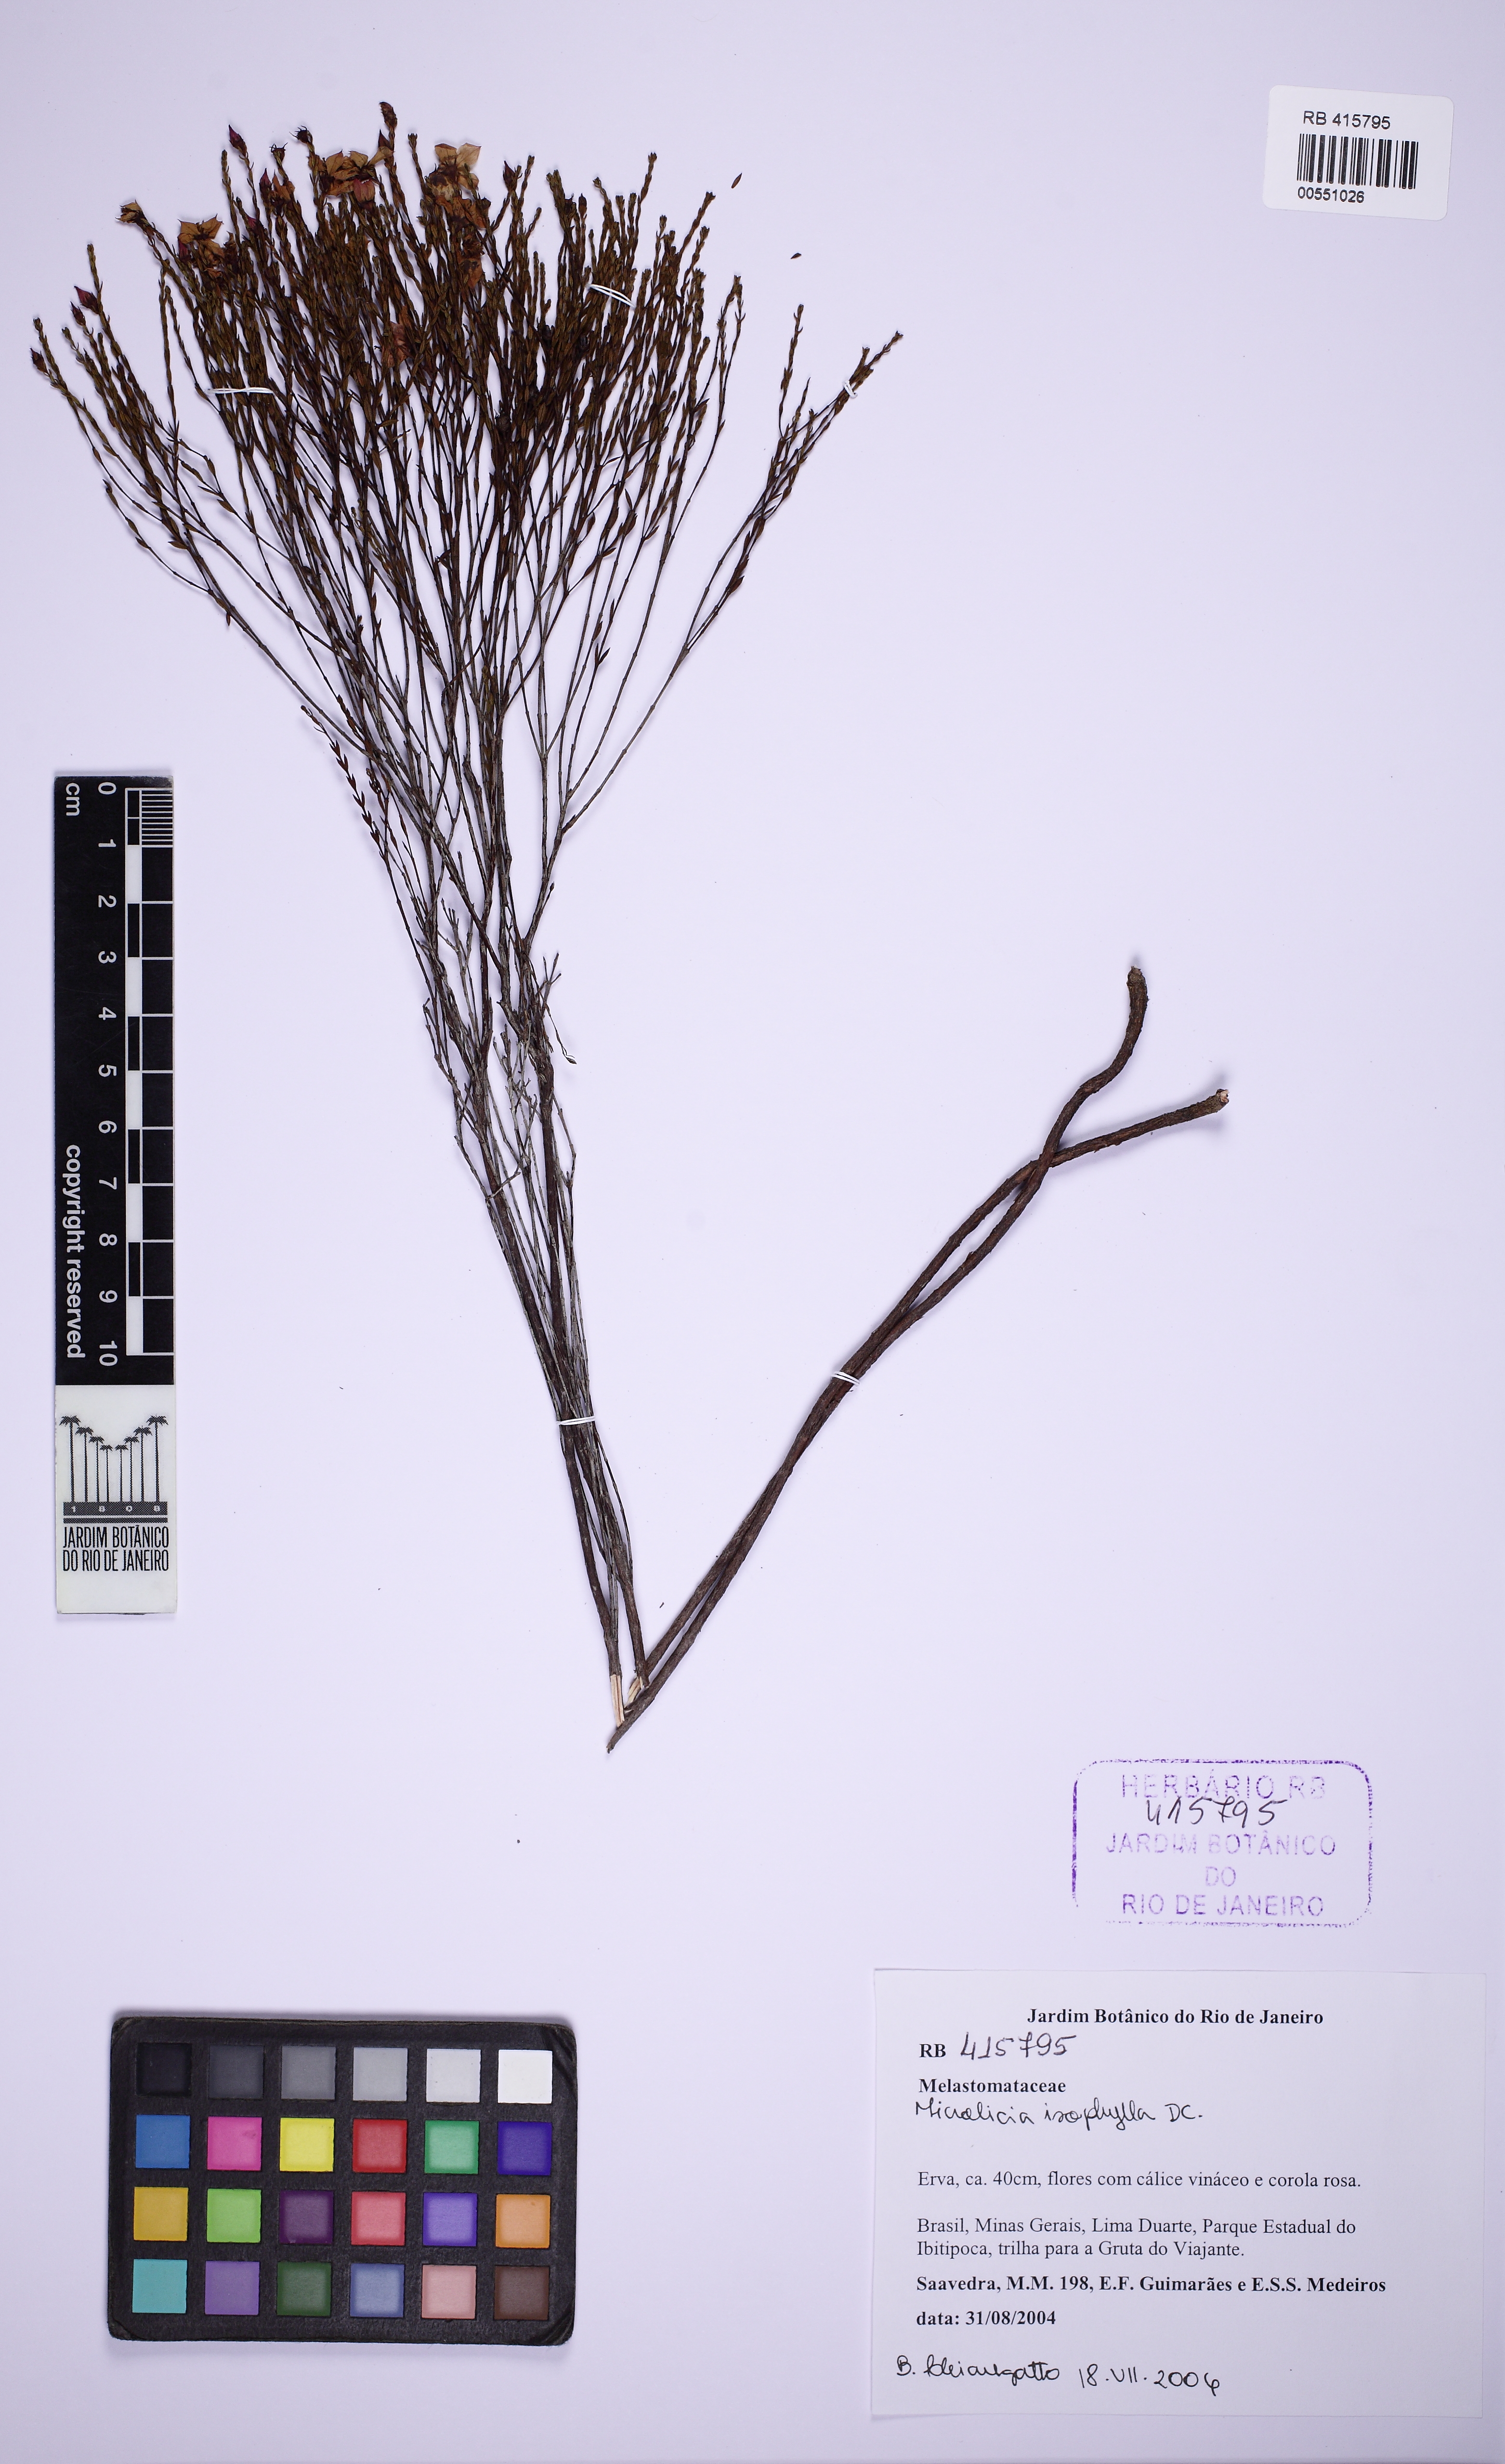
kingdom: Plantae
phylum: Tracheophyta
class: Magnoliopsida
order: Myrtales
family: Melastomataceae
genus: Microlicia
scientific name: Microlicia isophylla
